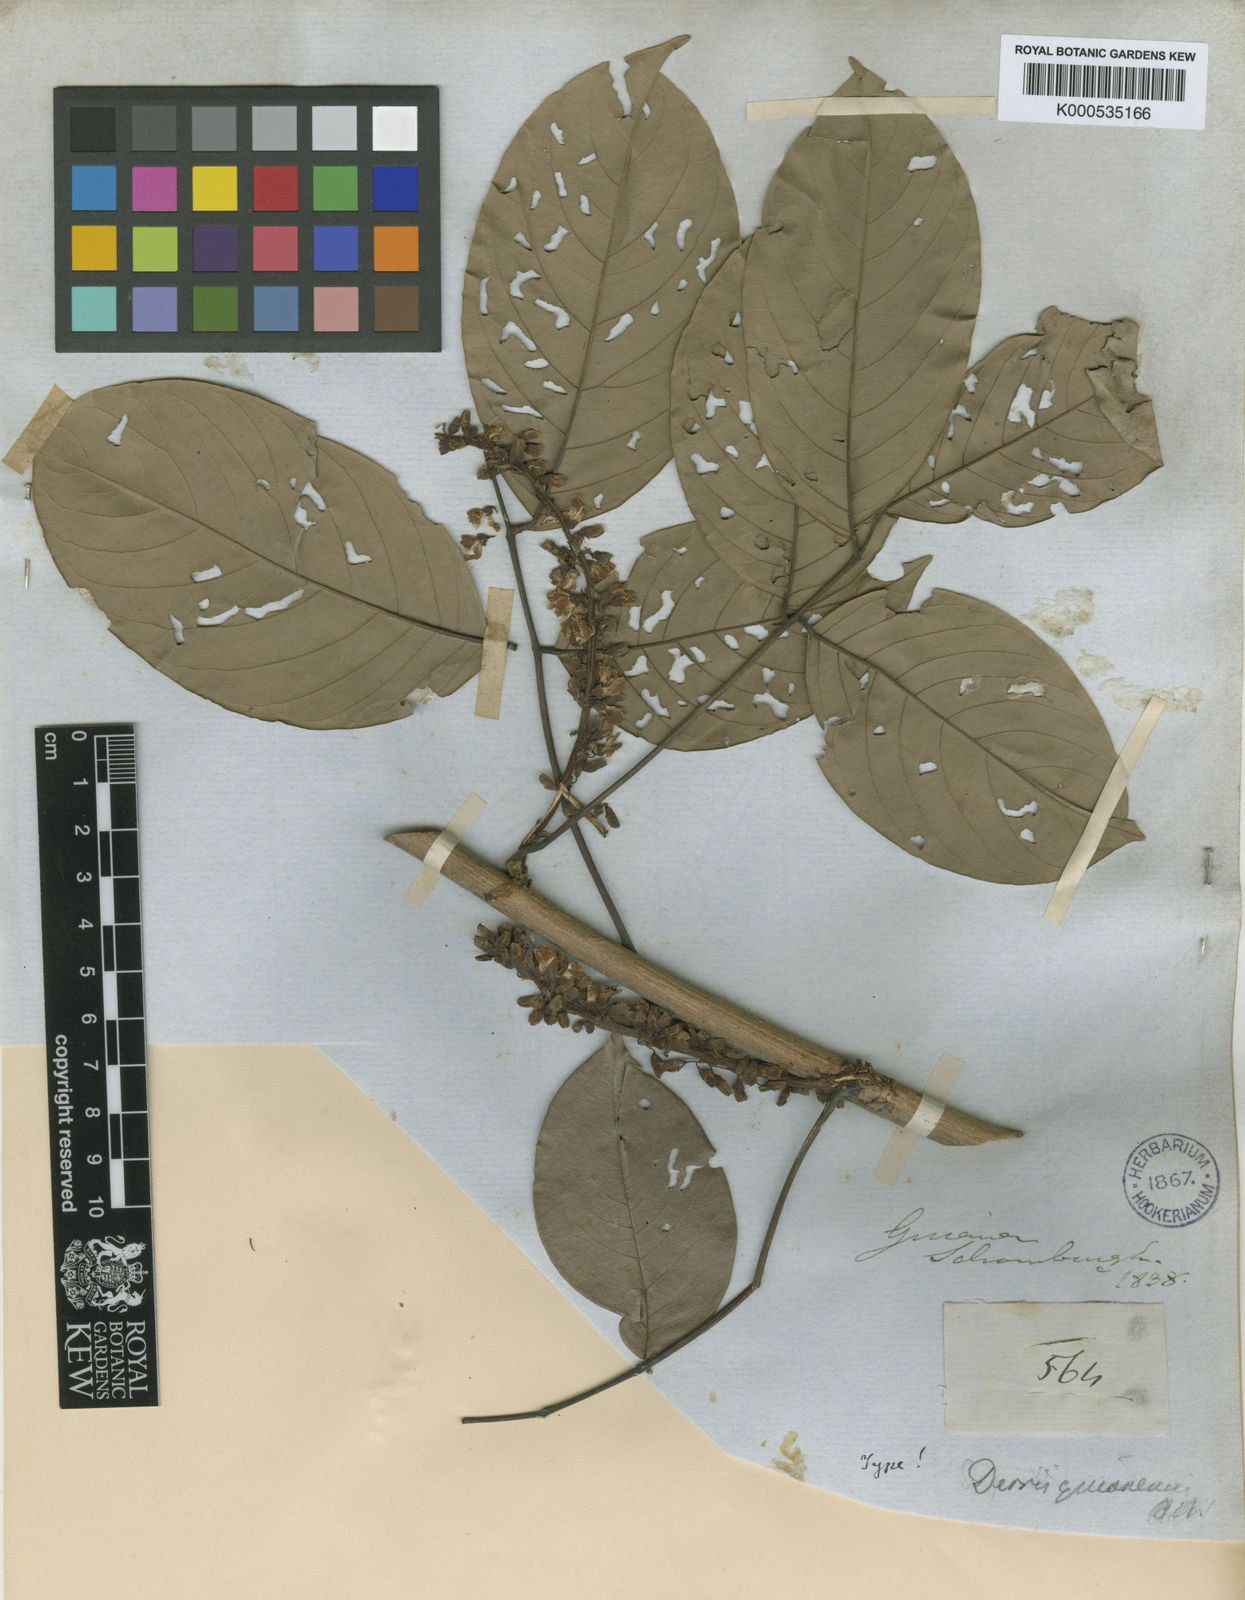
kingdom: Plantae
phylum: Tracheophyta
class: Magnoliopsida
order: Fabales
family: Fabaceae
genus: Deguelia
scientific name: Deguelia scandens
